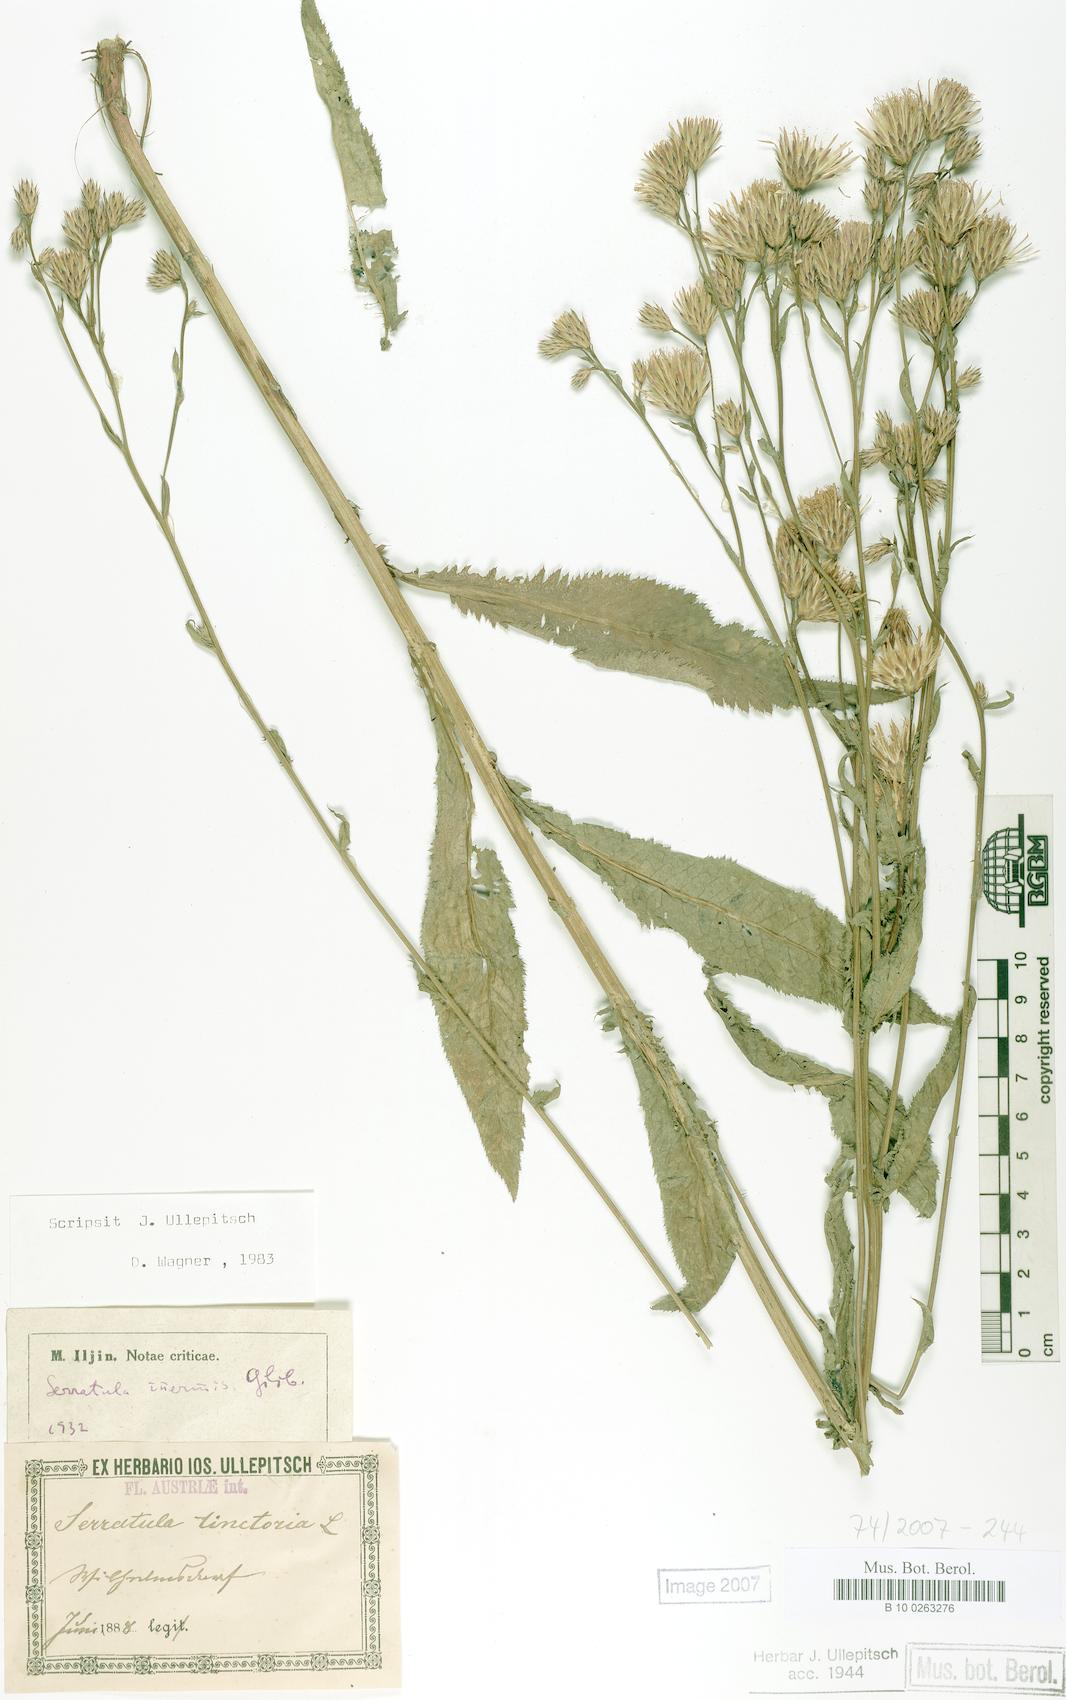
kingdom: Plantae
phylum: Tracheophyta
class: Magnoliopsida
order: Asterales
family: Asteraceae
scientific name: Asteraceae
